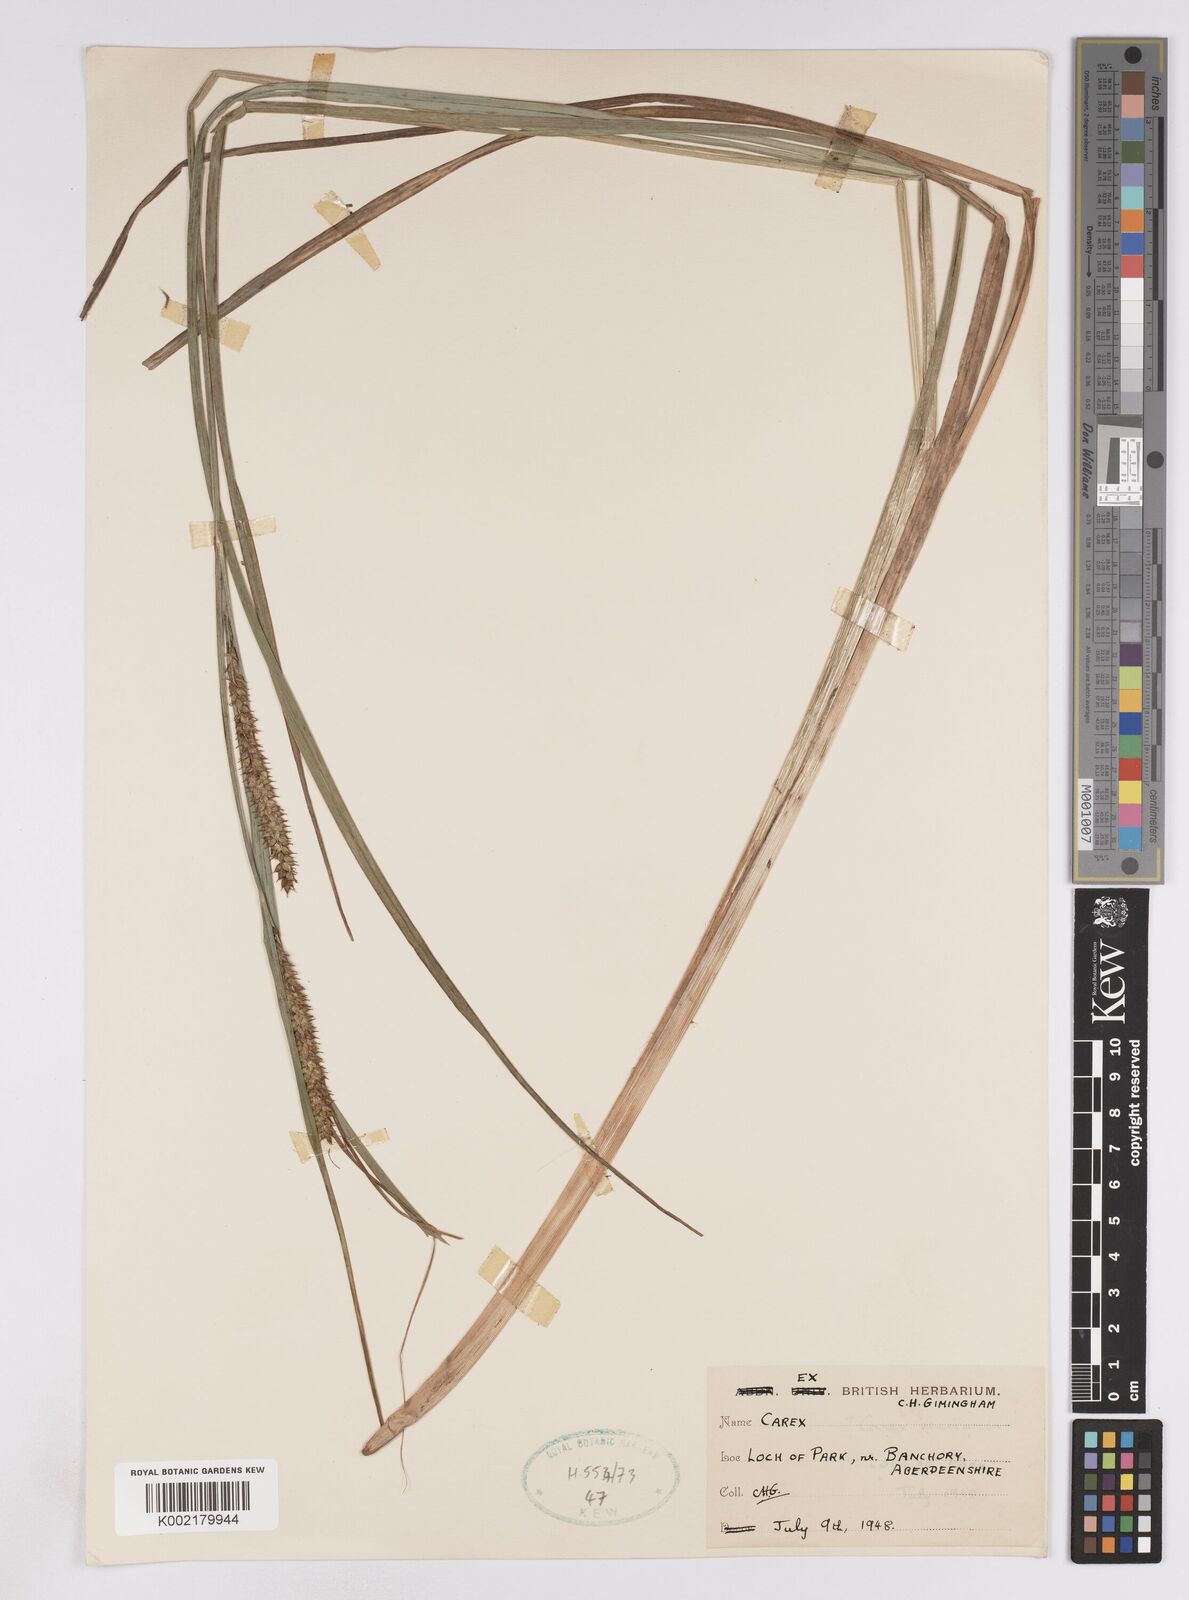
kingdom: Plantae
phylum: Tracheophyta
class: Liliopsida
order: Poales
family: Cyperaceae
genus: Carex
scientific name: Carex utriculata
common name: Beaked sedge
